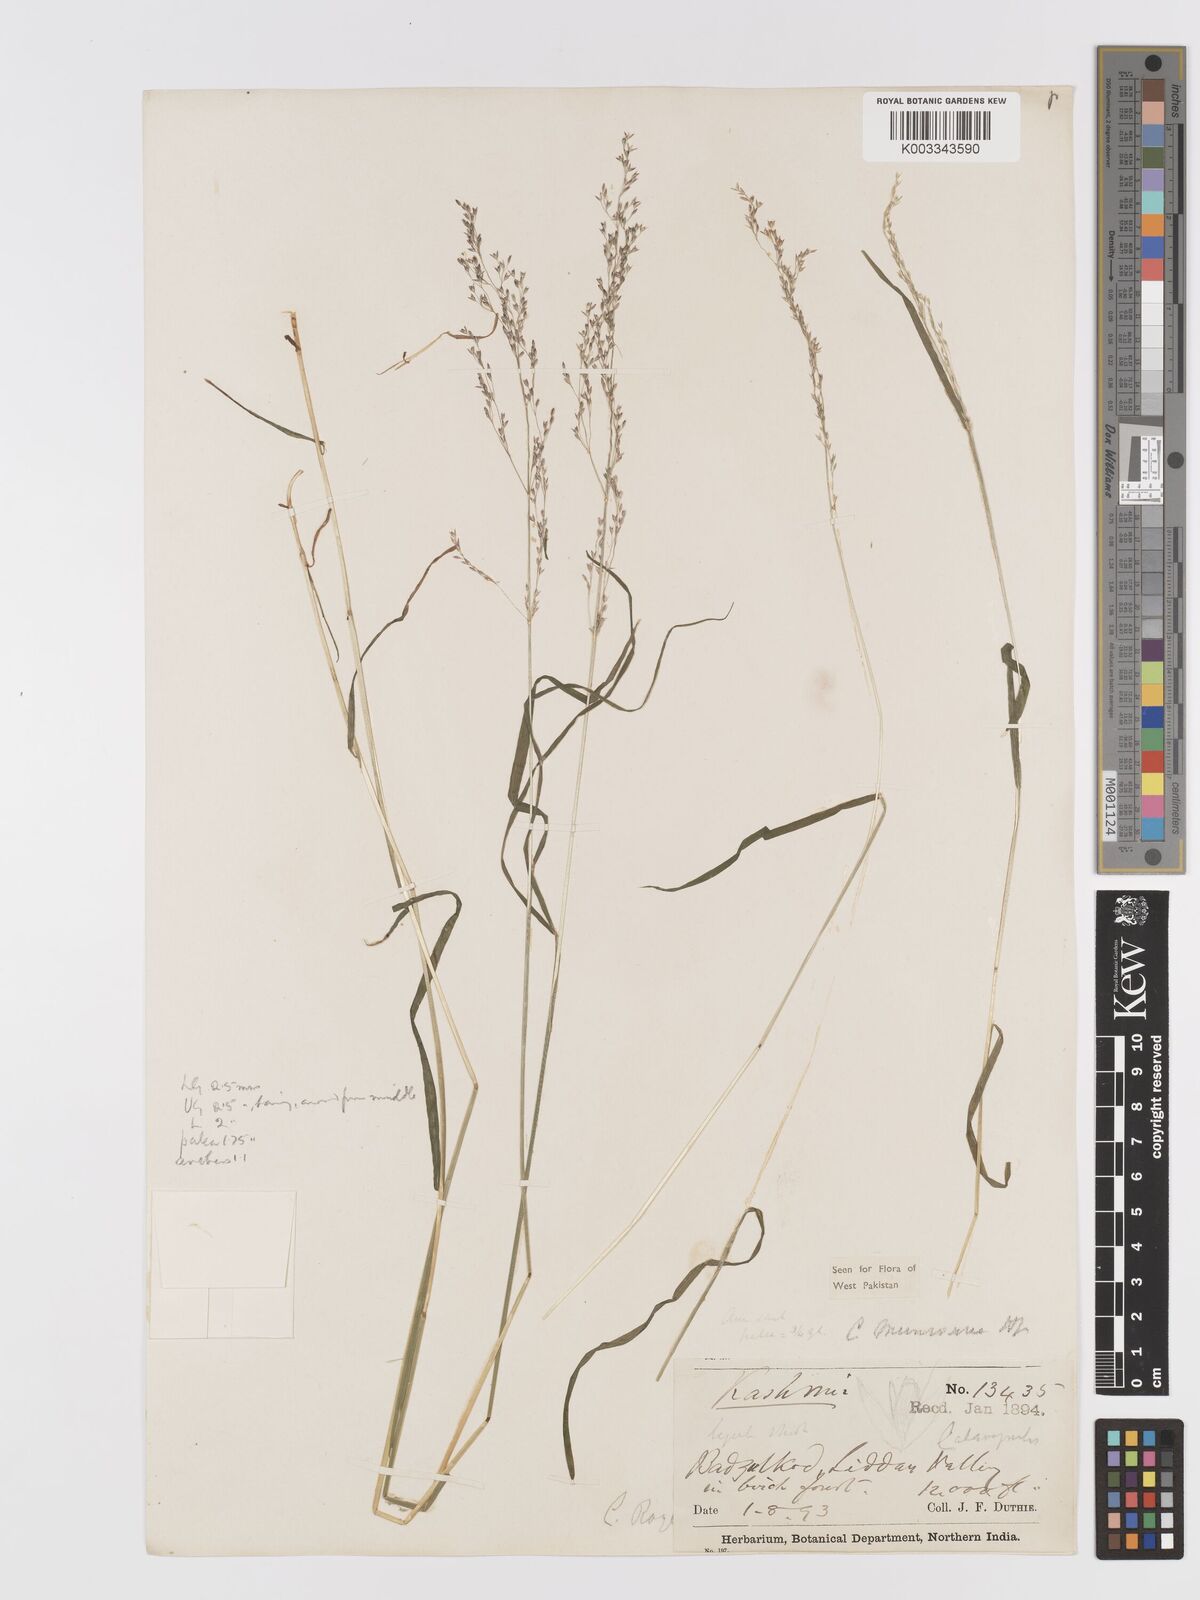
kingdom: Plantae
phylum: Tracheophyta
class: Liliopsida
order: Poales
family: Poaceae
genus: Agrostis
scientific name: Agrostis munroana
